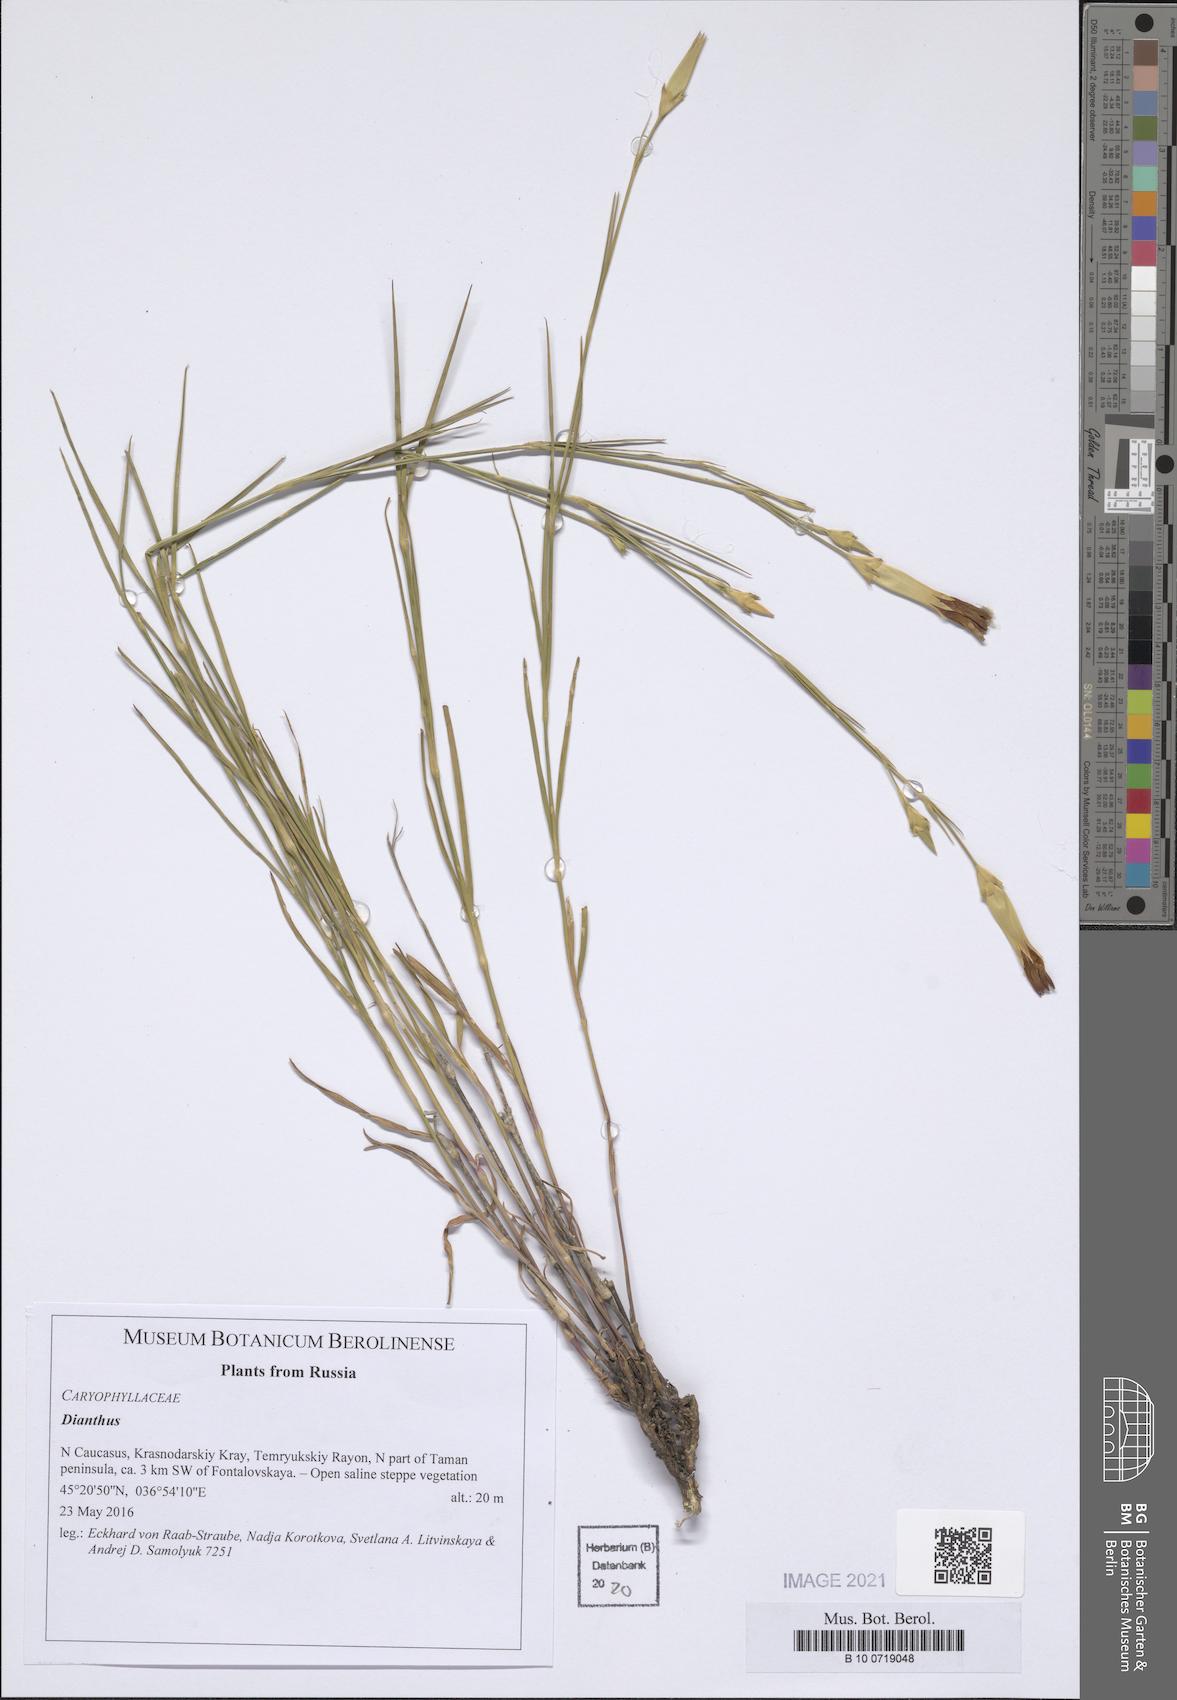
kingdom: Plantae
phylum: Tracheophyta
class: Magnoliopsida
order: Caryophyllales
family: Caryophyllaceae
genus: Dianthus
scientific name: Dianthus
